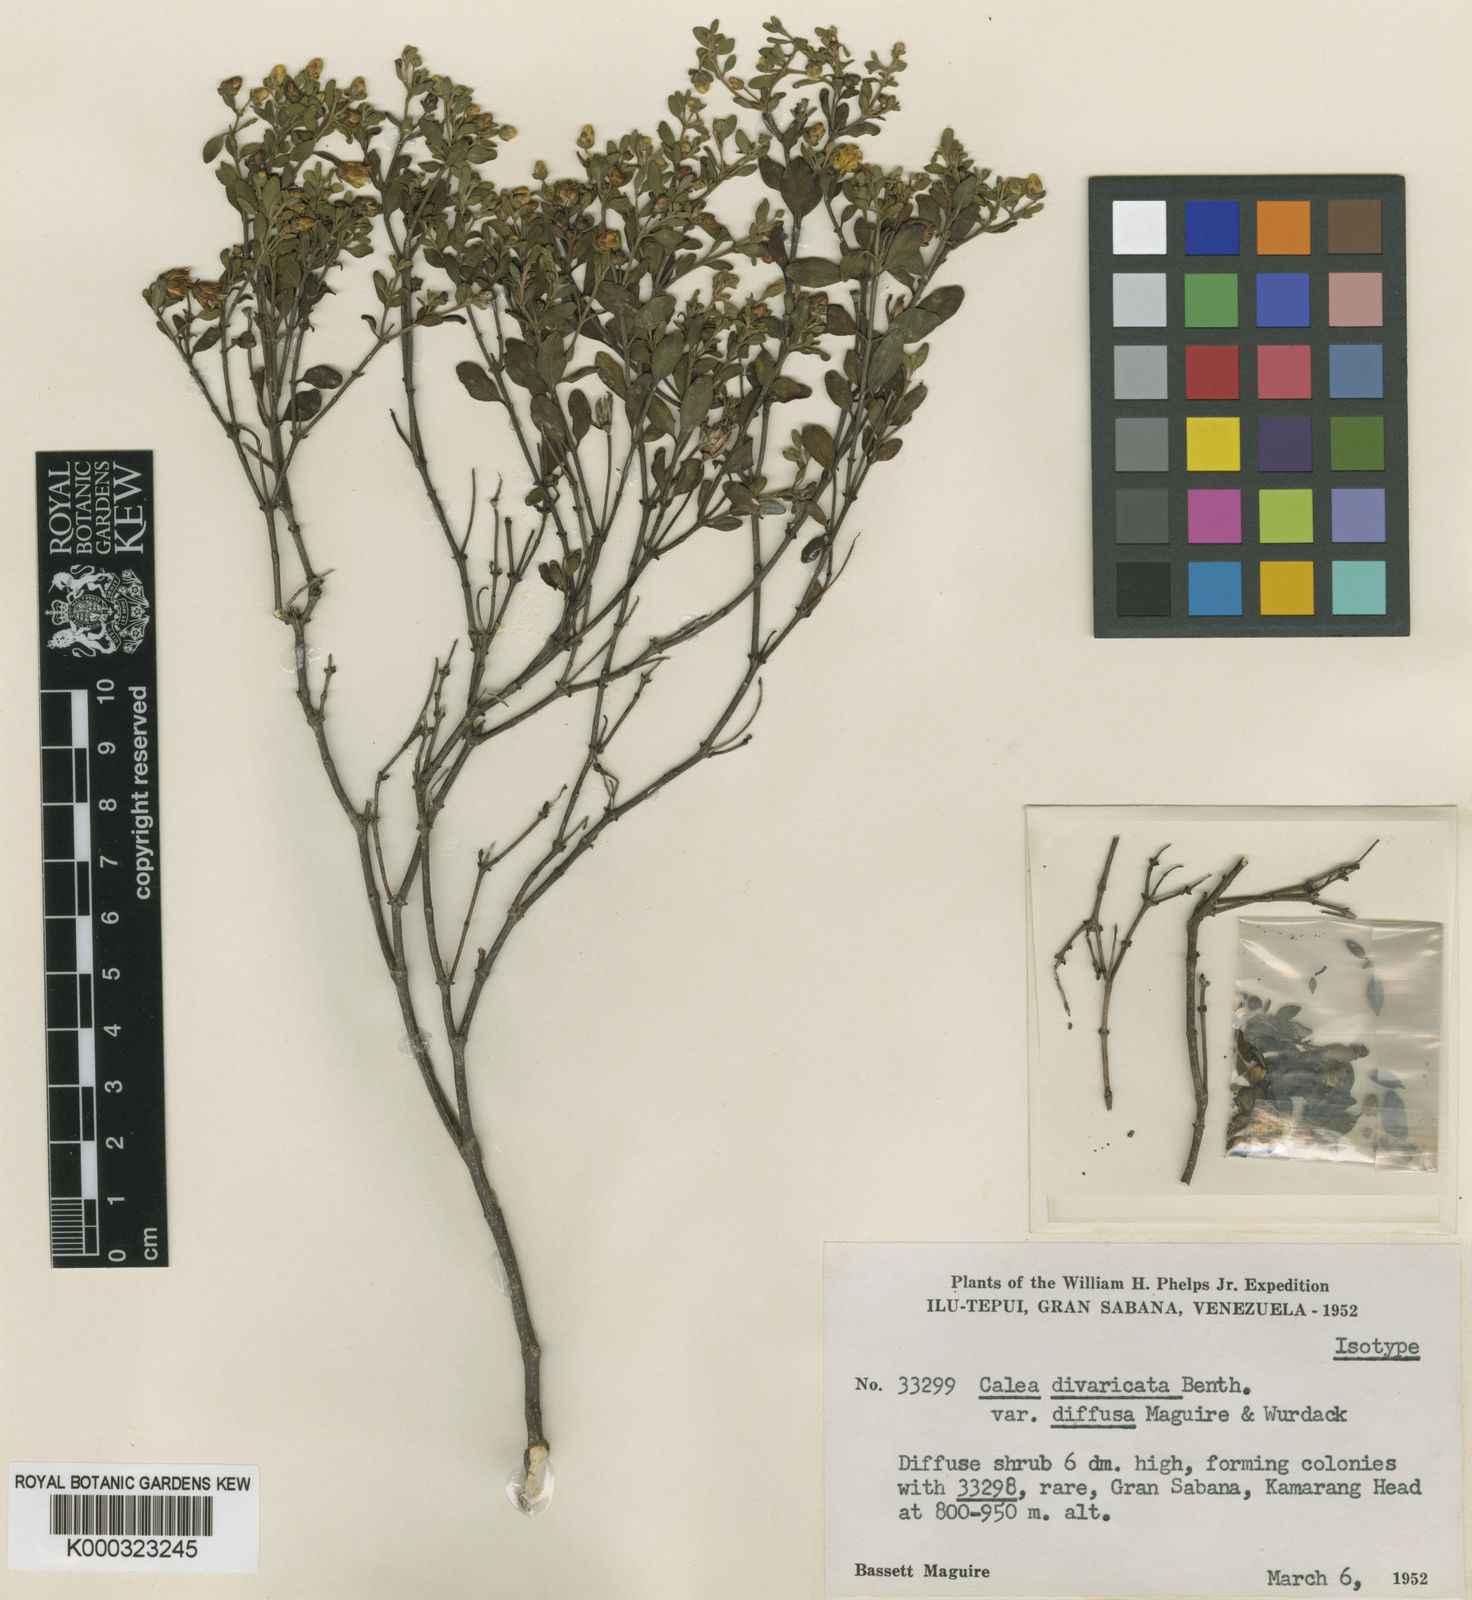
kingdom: Plantae
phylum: Tracheophyta
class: Magnoliopsida
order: Asterales
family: Asteraceae
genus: Calea
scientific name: Calea divaricata
